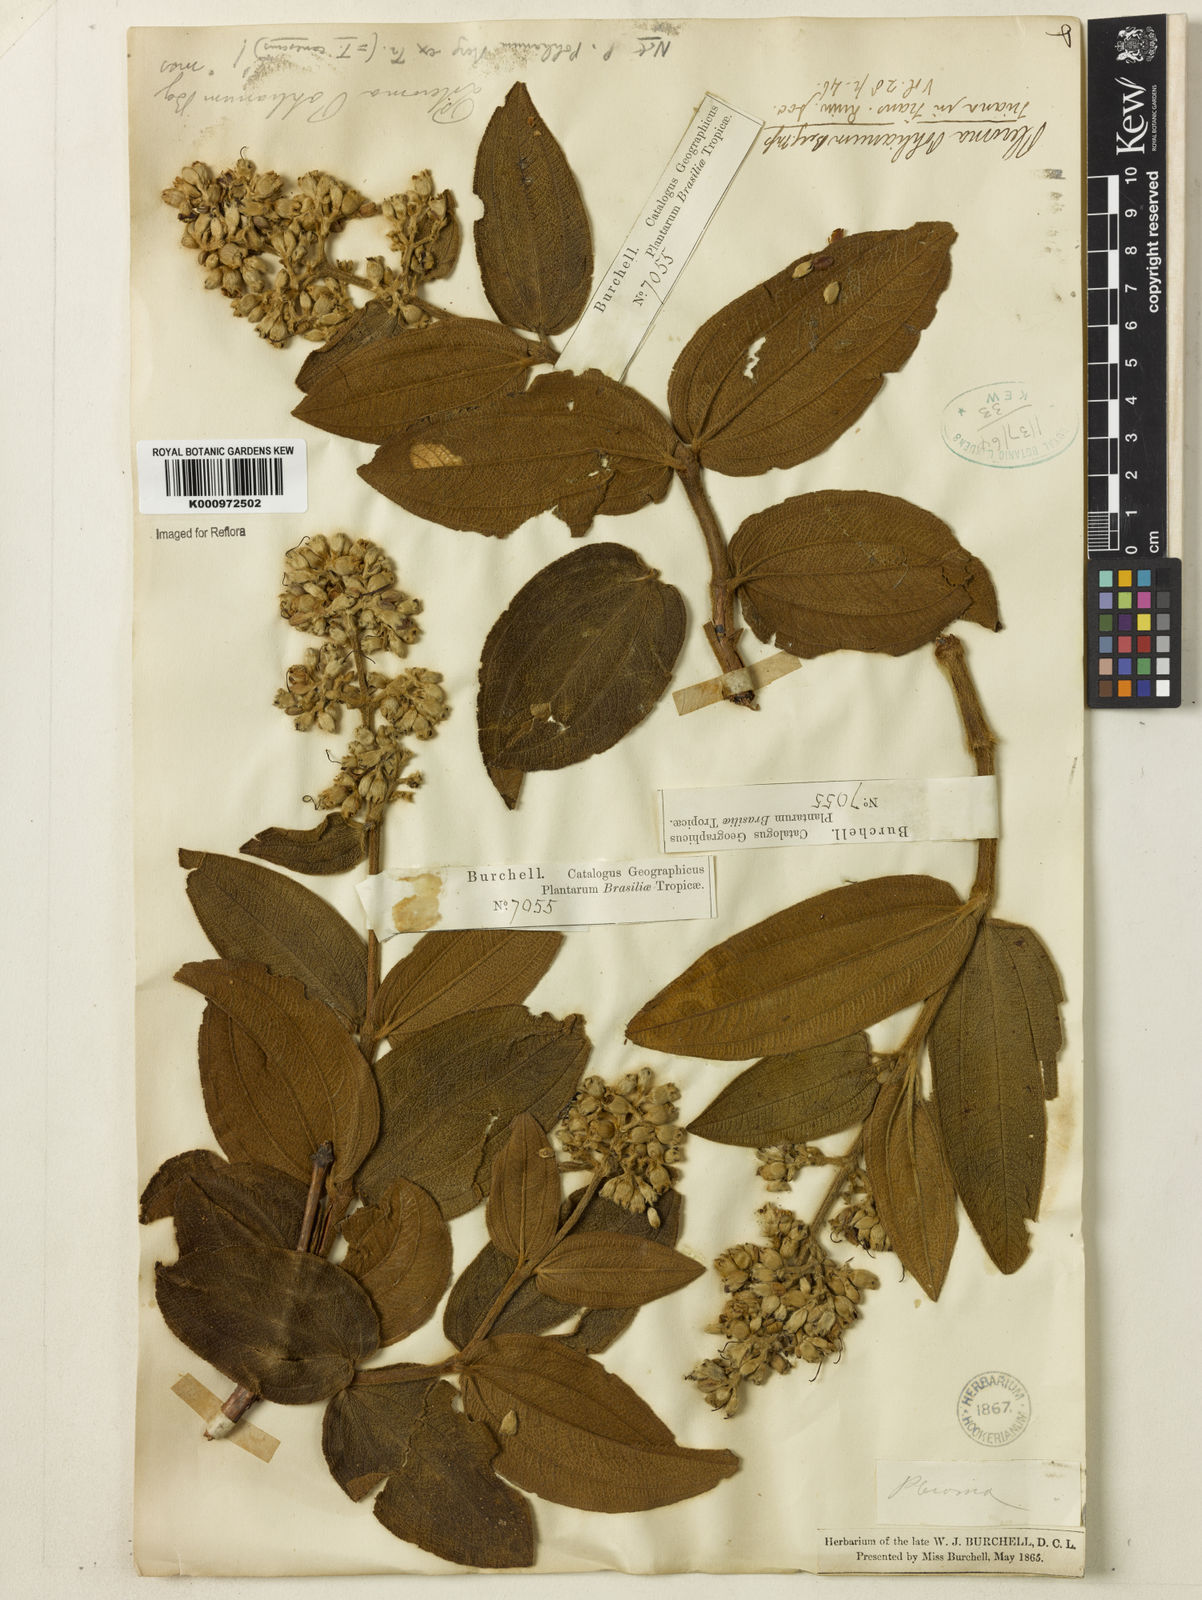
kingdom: Plantae
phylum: Tracheophyta
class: Magnoliopsida
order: Myrtales
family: Melastomataceae
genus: Pleroma
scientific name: Pleroma heteromallum
